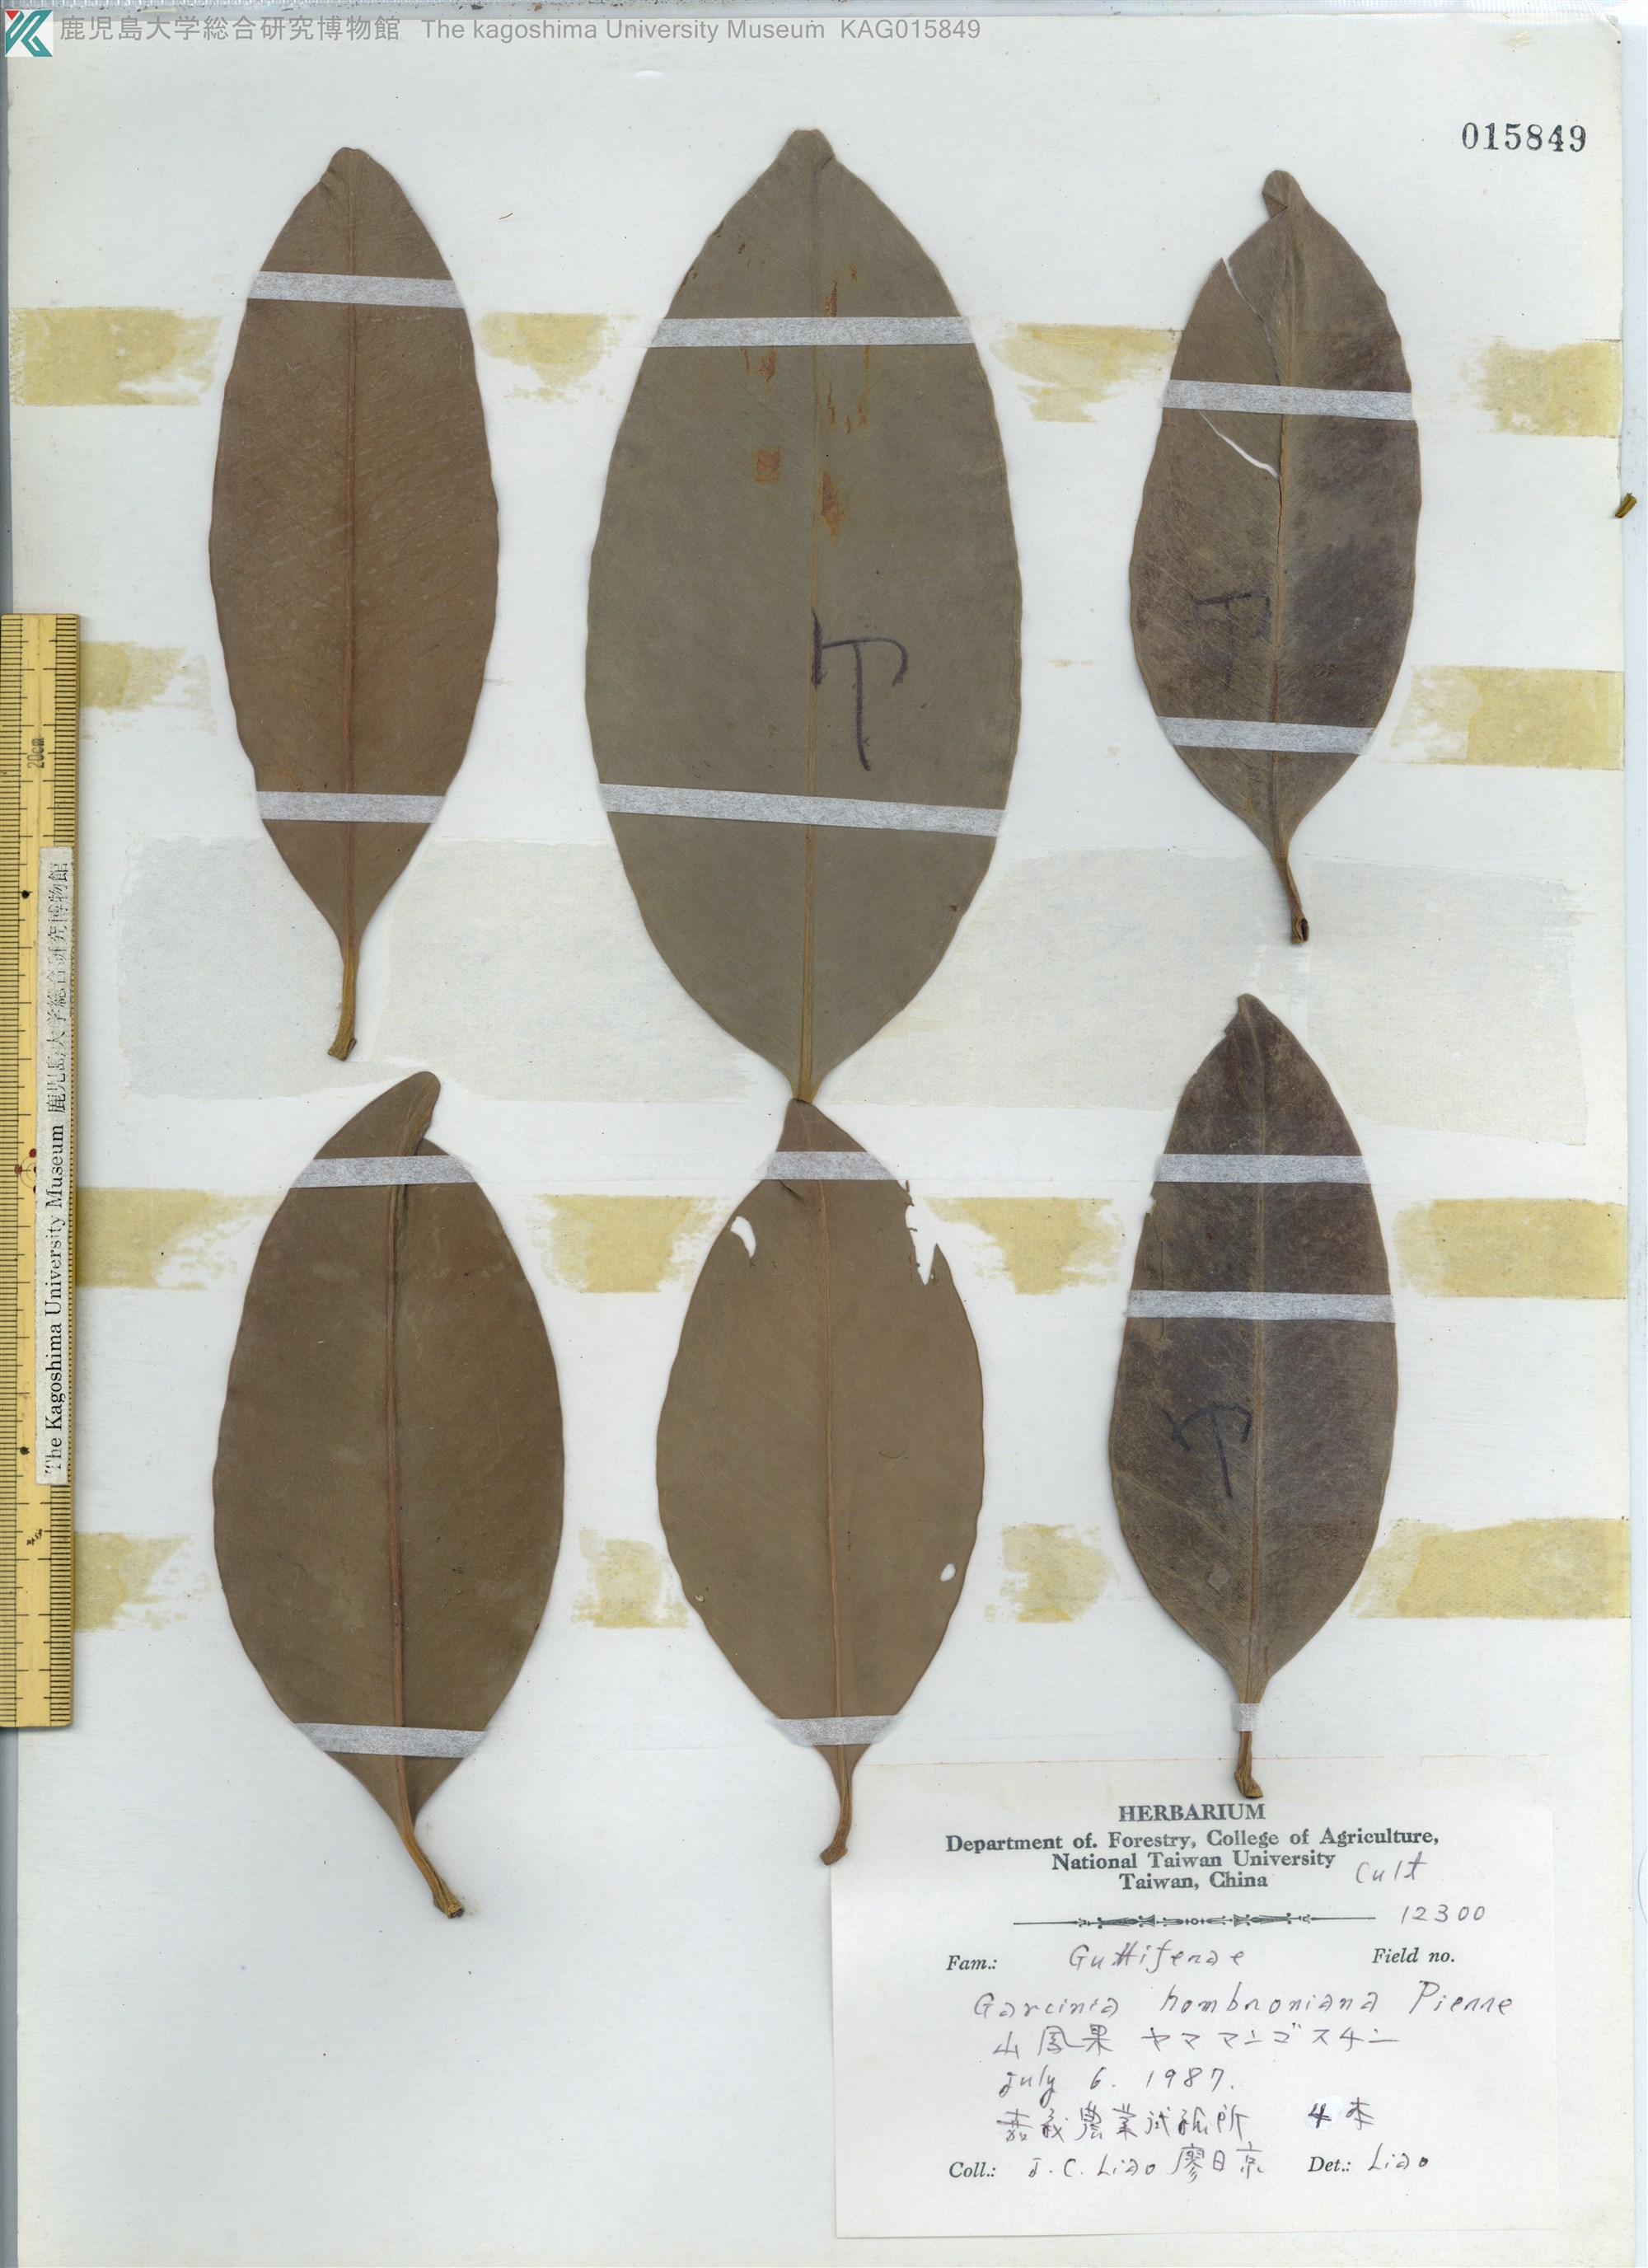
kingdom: Plantae
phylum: Tracheophyta
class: Magnoliopsida
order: Malpighiales
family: Clusiaceae
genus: Garcinia
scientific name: Garcinia hombroniana
